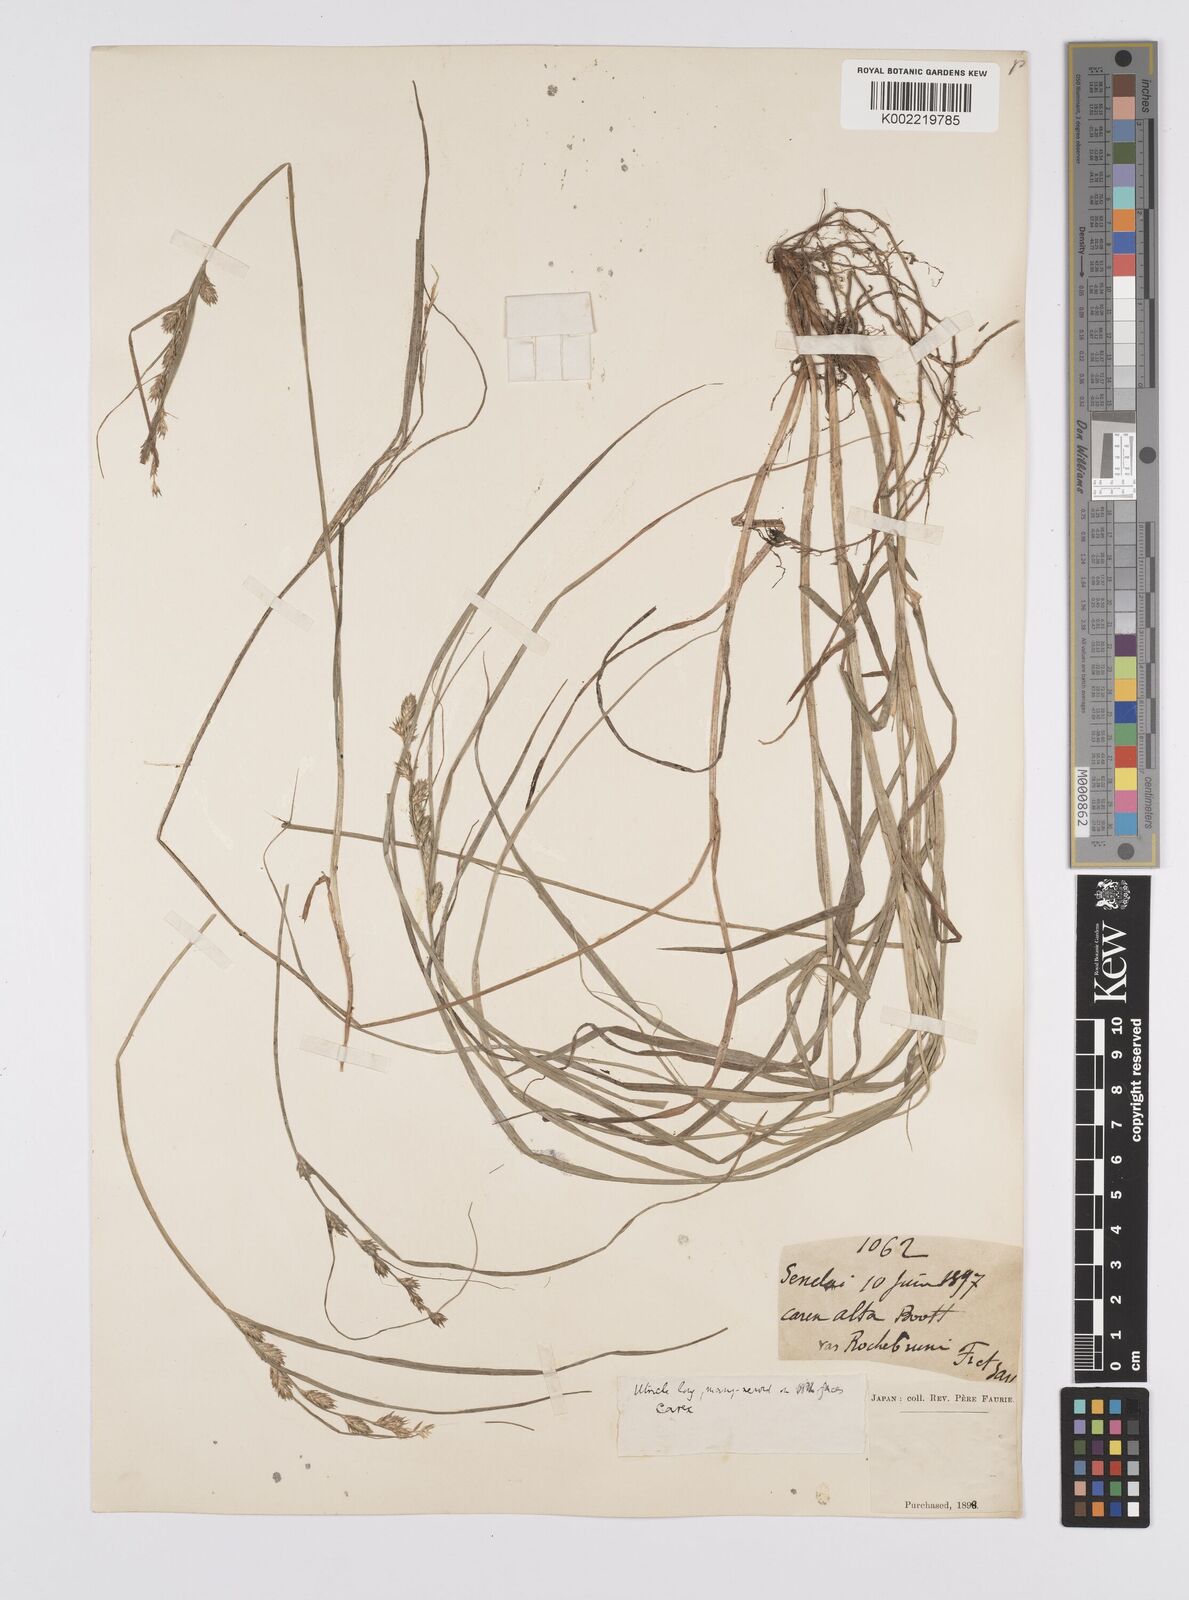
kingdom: Plantae
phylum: Tracheophyta
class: Liliopsida
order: Poales
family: Cyperaceae
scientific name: Cyperaceae
